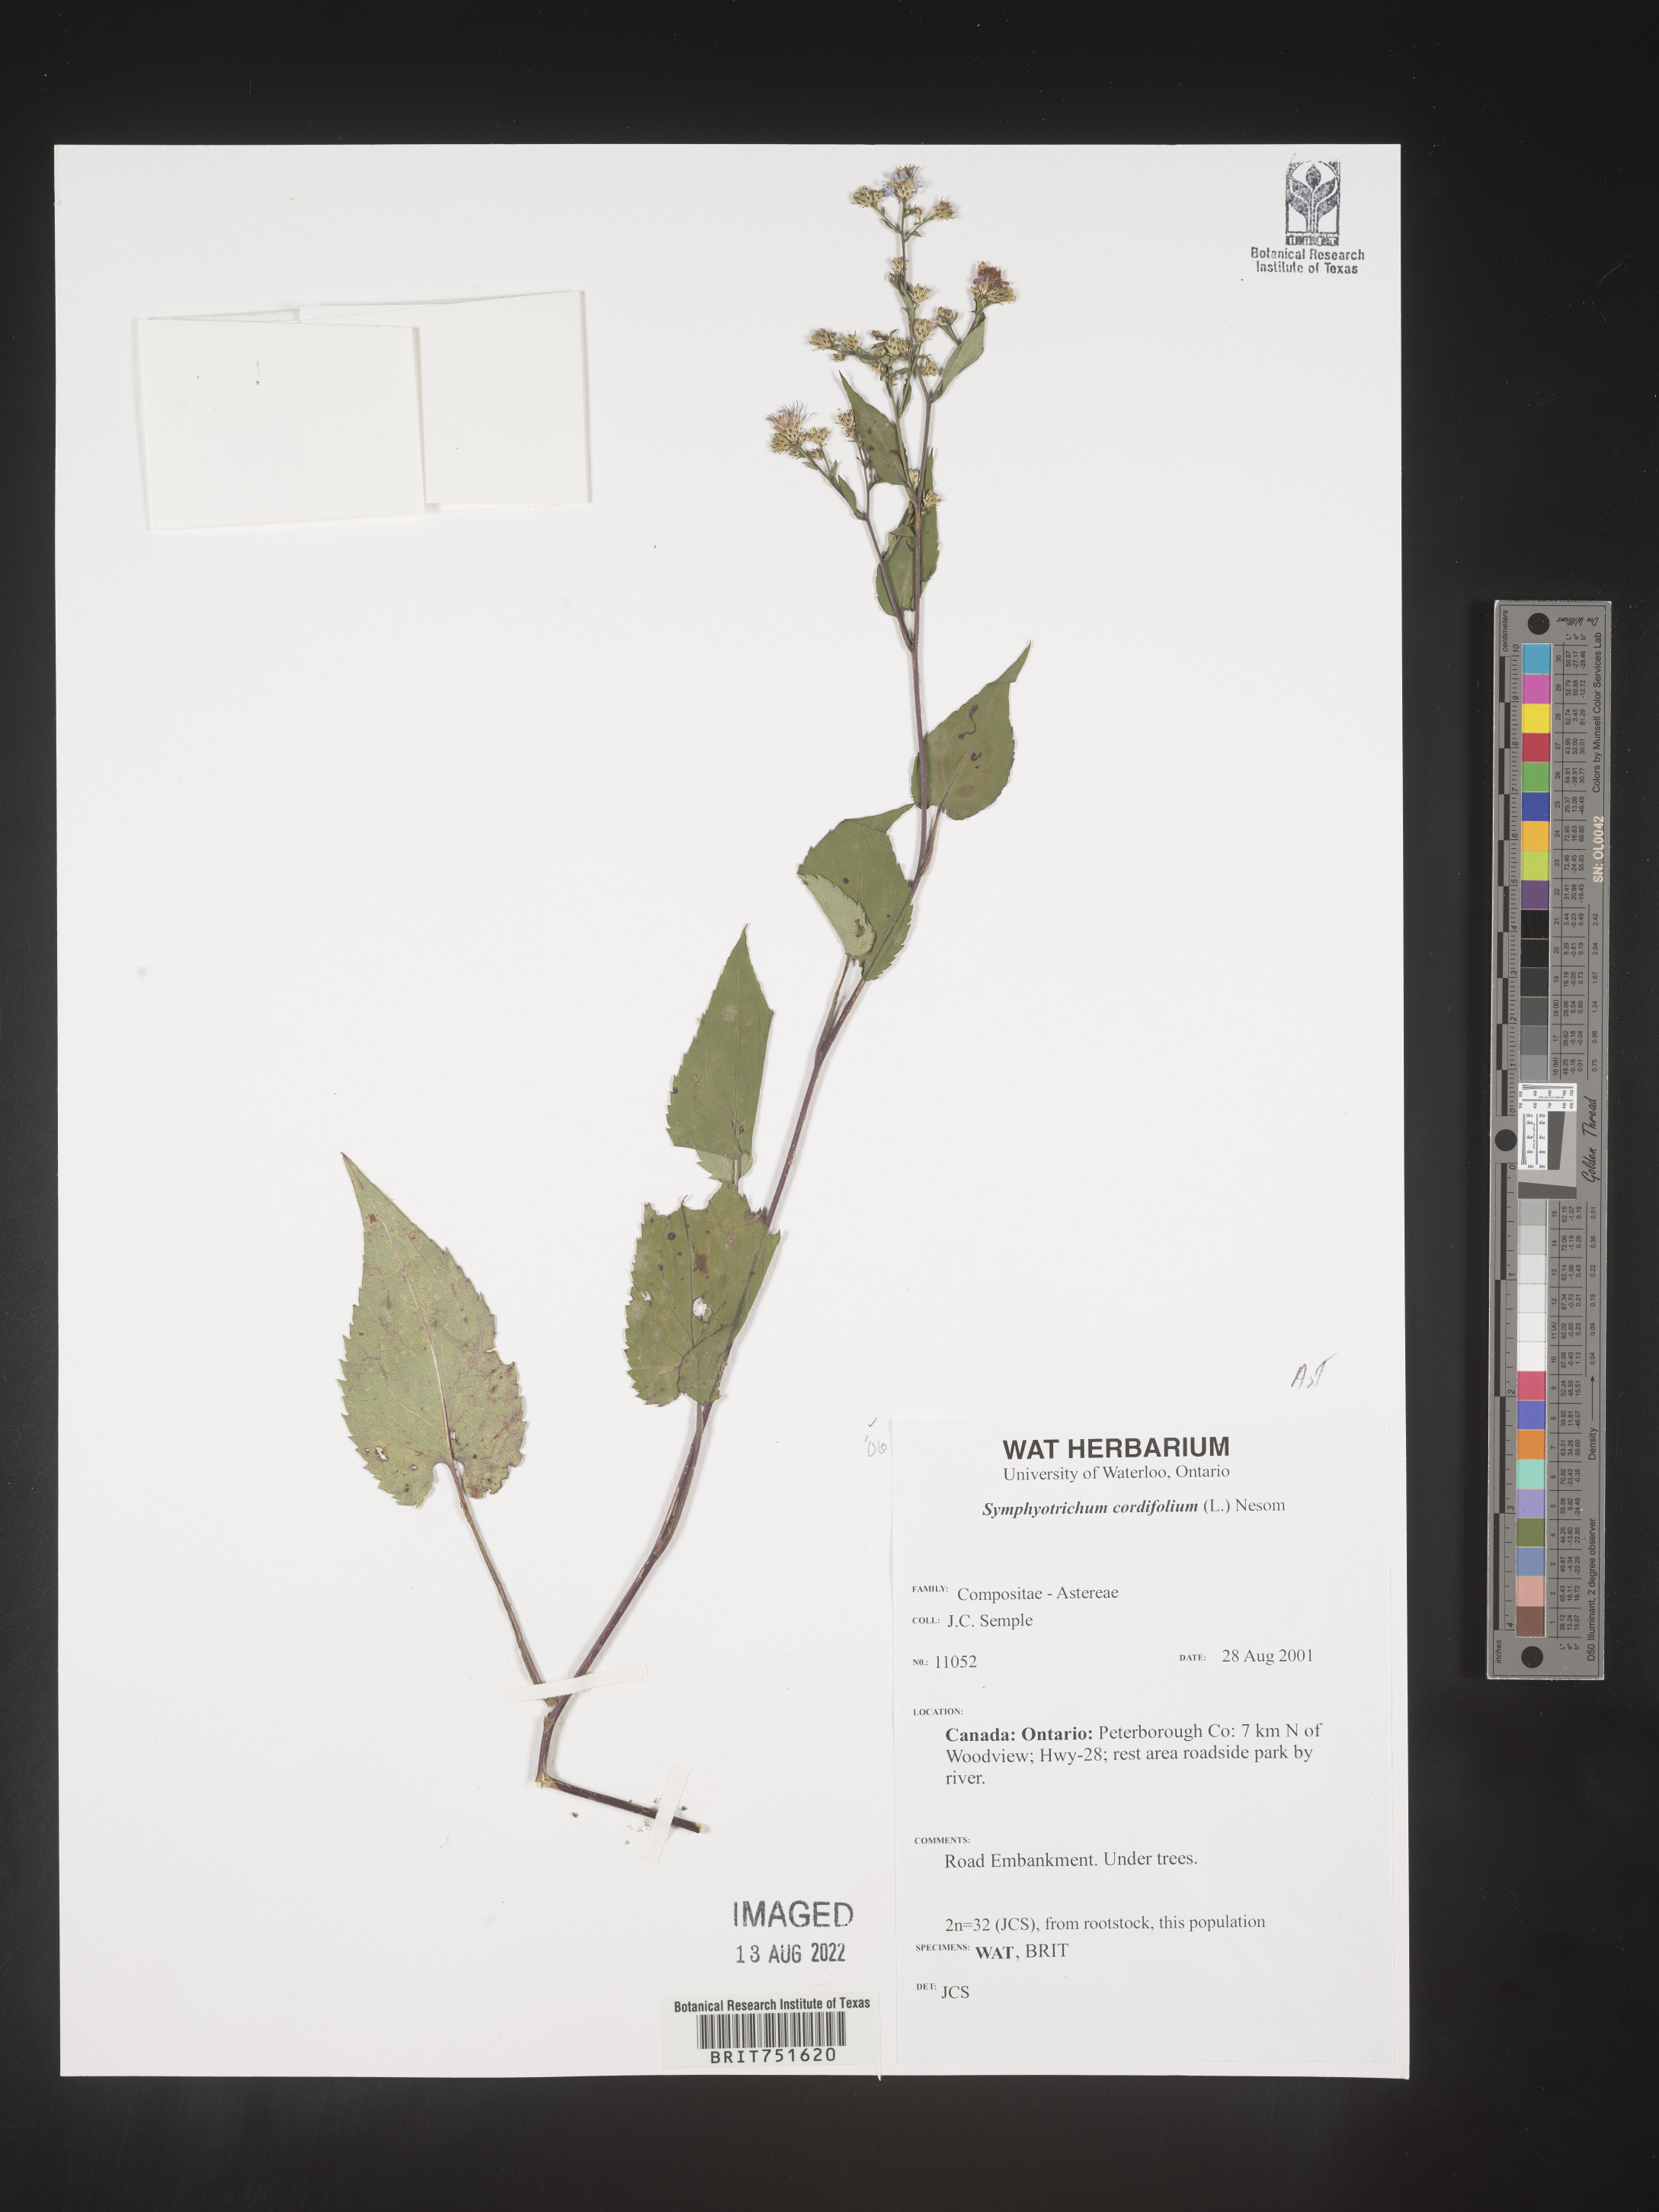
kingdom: Plantae
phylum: Tracheophyta
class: Magnoliopsida
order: Asterales
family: Asteraceae
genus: Symphyotrichum
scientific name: Symphyotrichum cordifolium
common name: Beeweed
